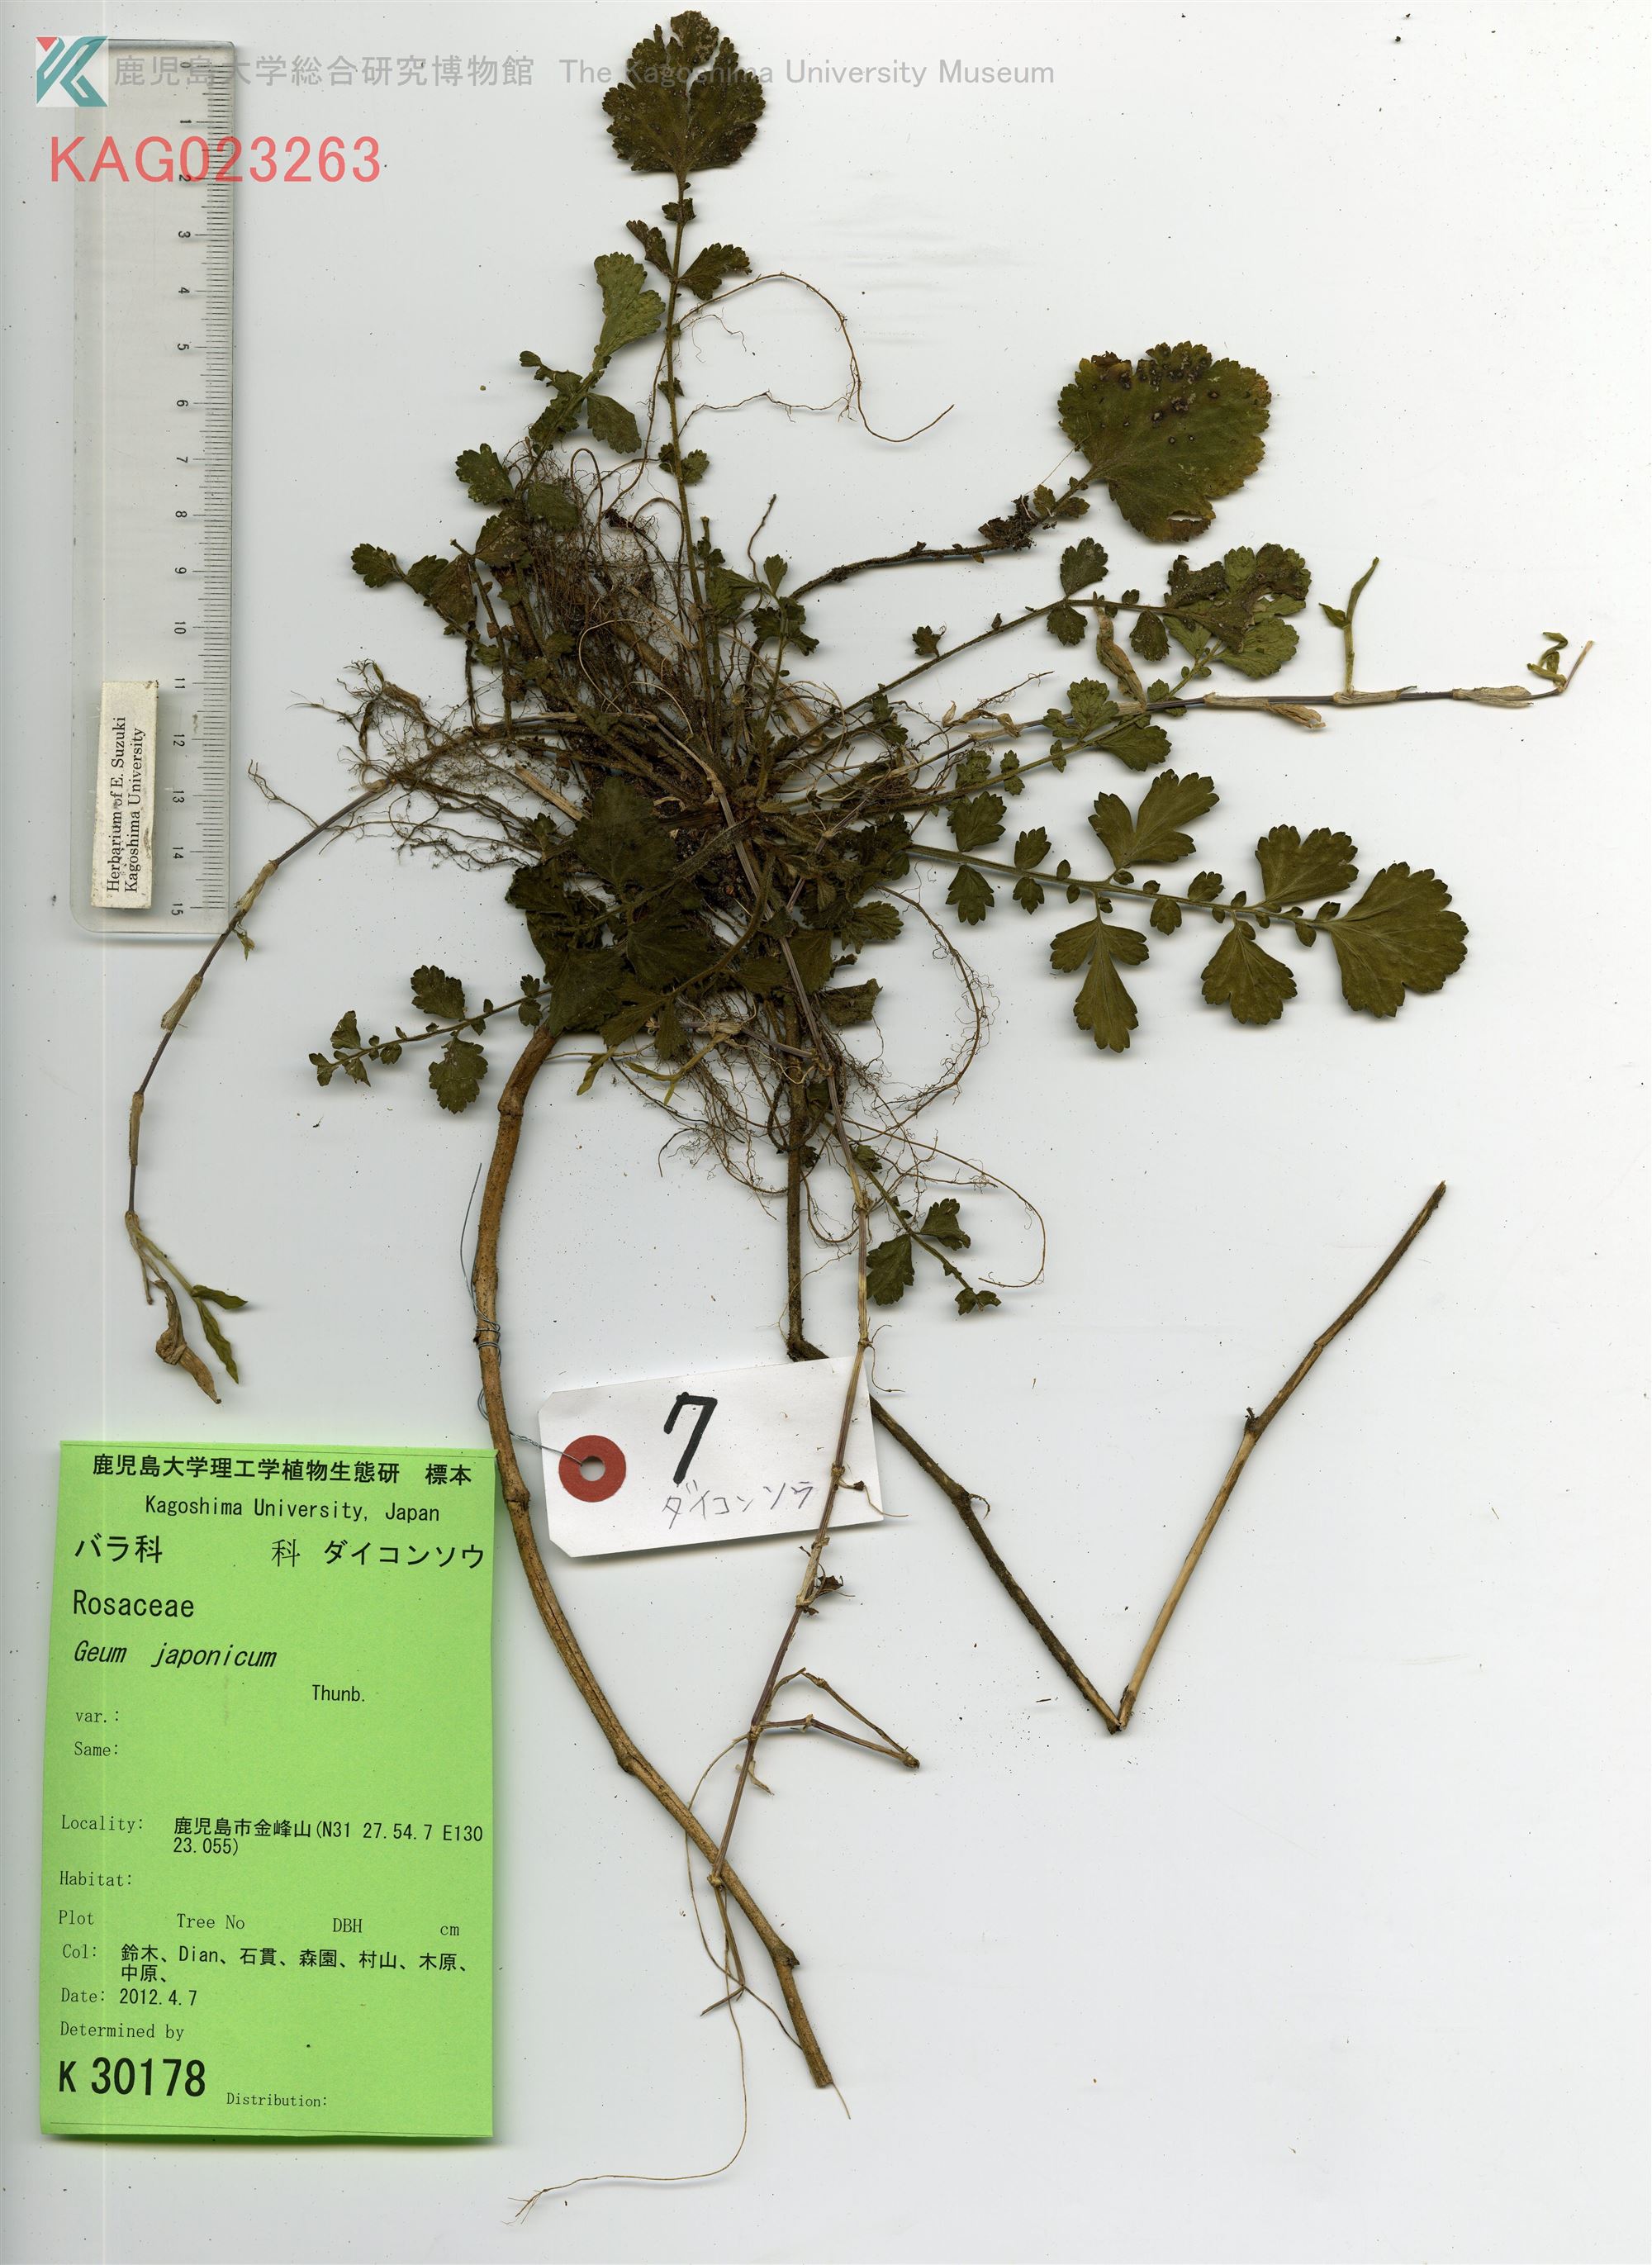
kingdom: Plantae
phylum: Tracheophyta
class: Magnoliopsida
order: Rosales
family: Rosaceae
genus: Geum
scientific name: Geum japonicum
